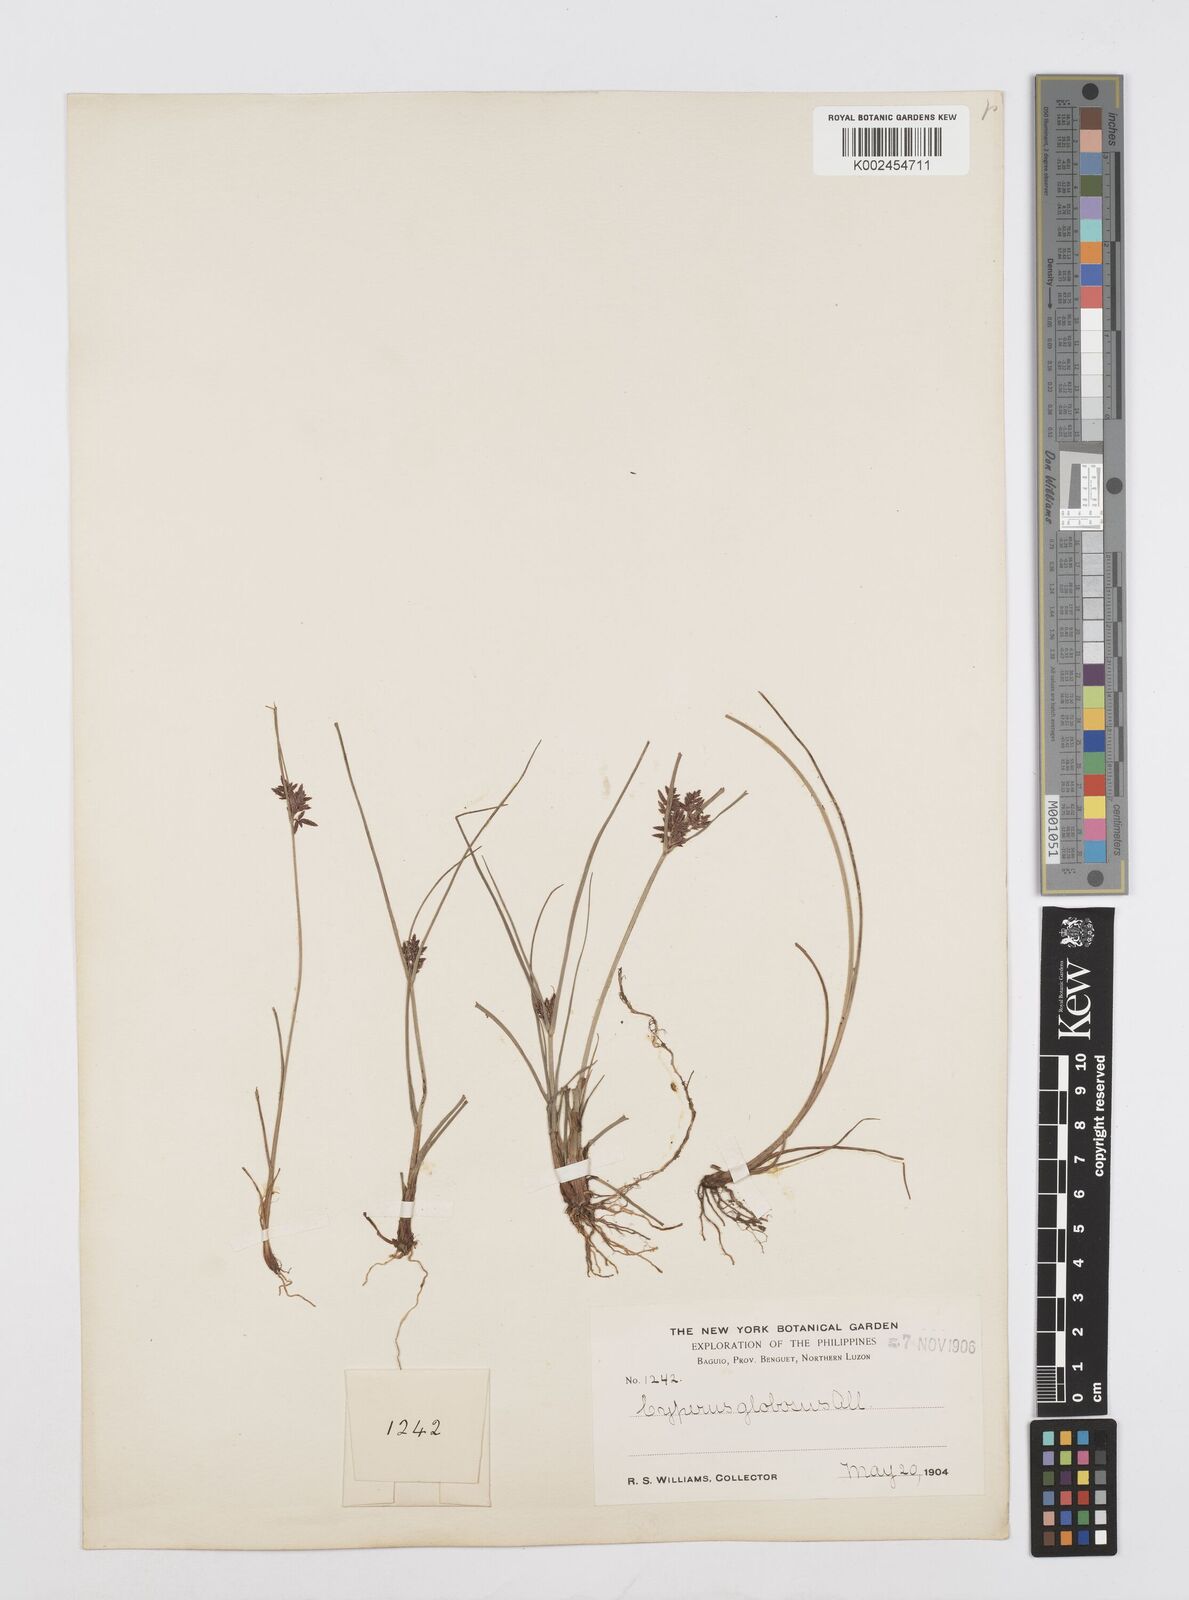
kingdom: Plantae
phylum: Tracheophyta
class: Liliopsida
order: Poales
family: Cyperaceae
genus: Cyperus
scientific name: Cyperus flavidus
